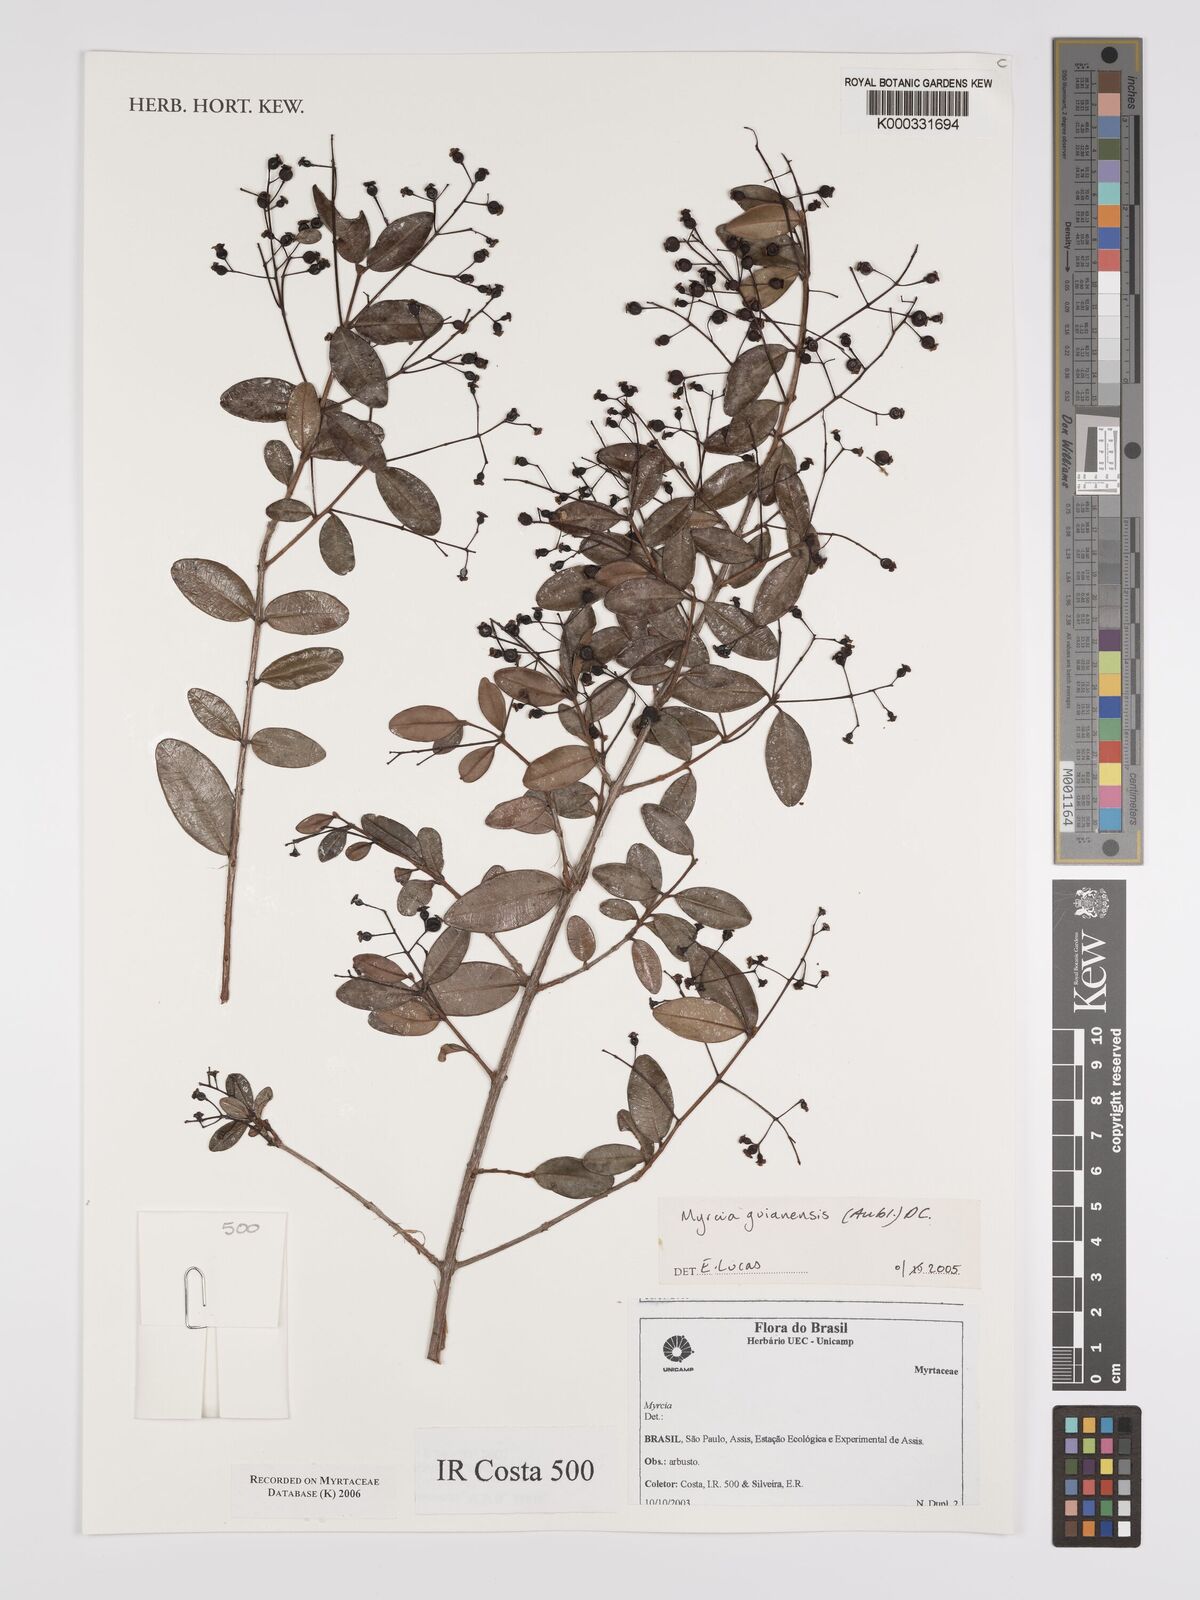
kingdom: Plantae
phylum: Tracheophyta
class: Magnoliopsida
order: Myrtales
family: Myrtaceae
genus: Myrcia
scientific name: Myrcia guianensis
